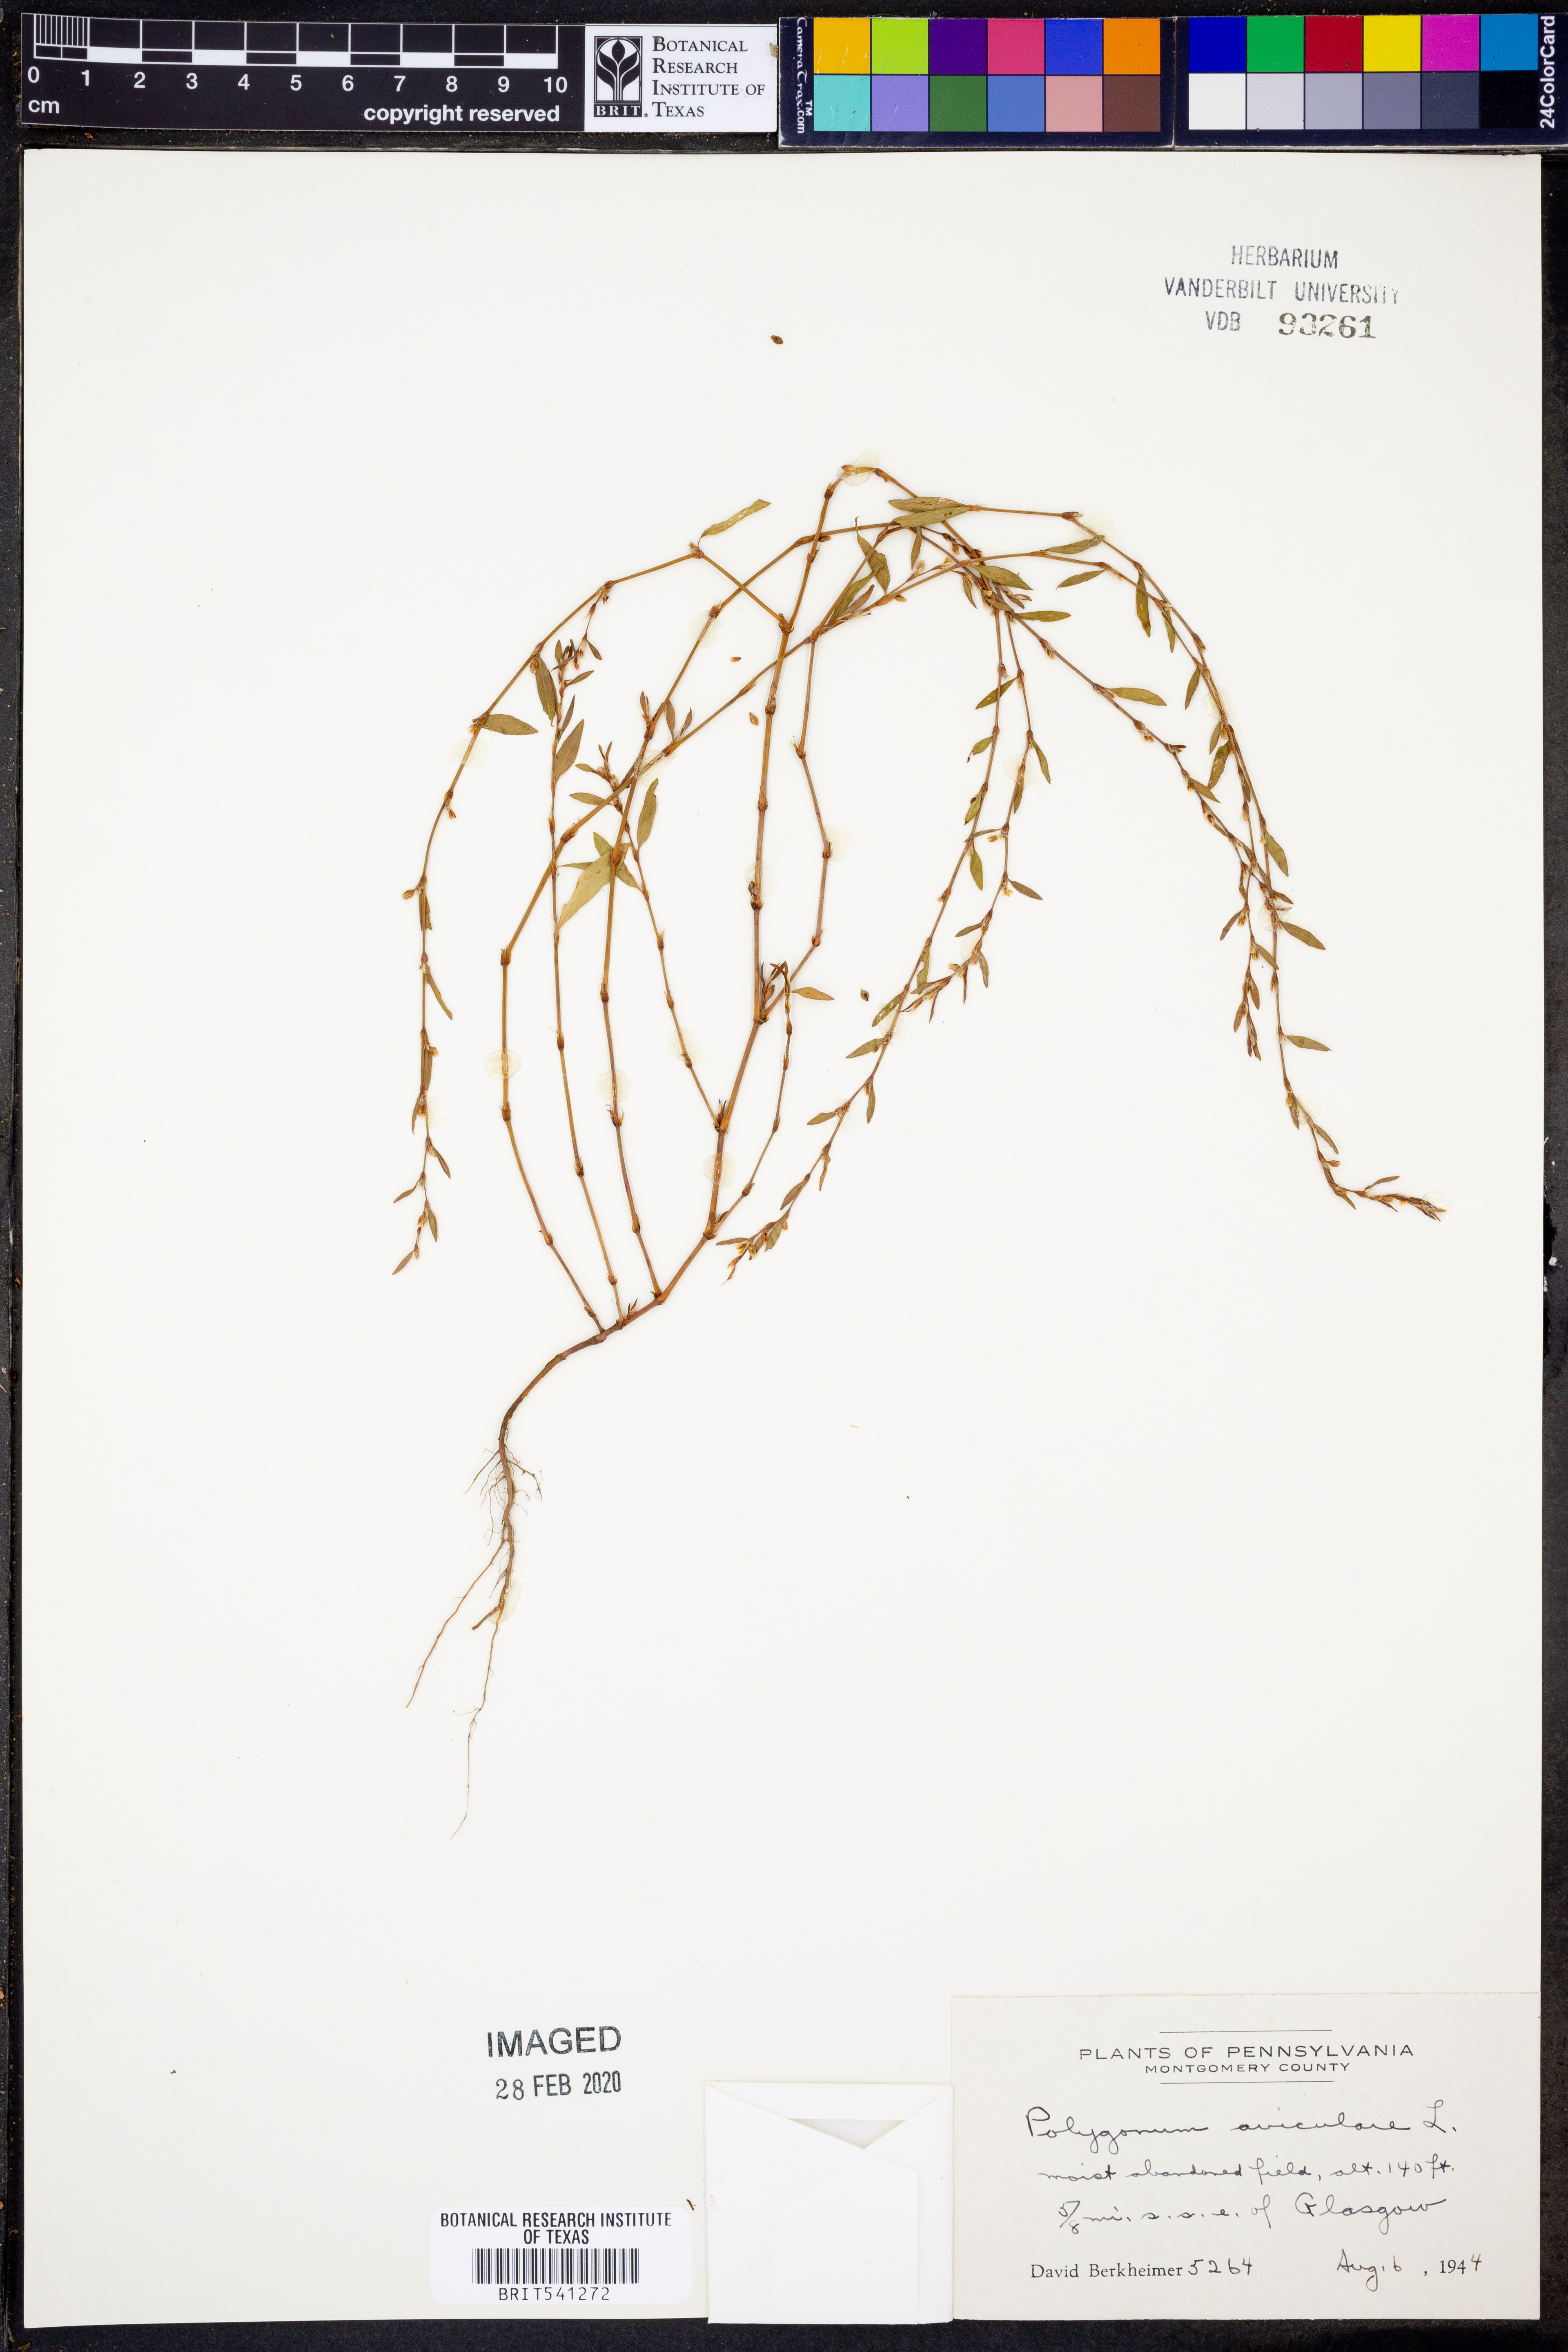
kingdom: Plantae
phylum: Tracheophyta
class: Magnoliopsida
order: Caryophyllales
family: Polygonaceae
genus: Polygonum
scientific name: Polygonum aviculare
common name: Prostrate knotweed
